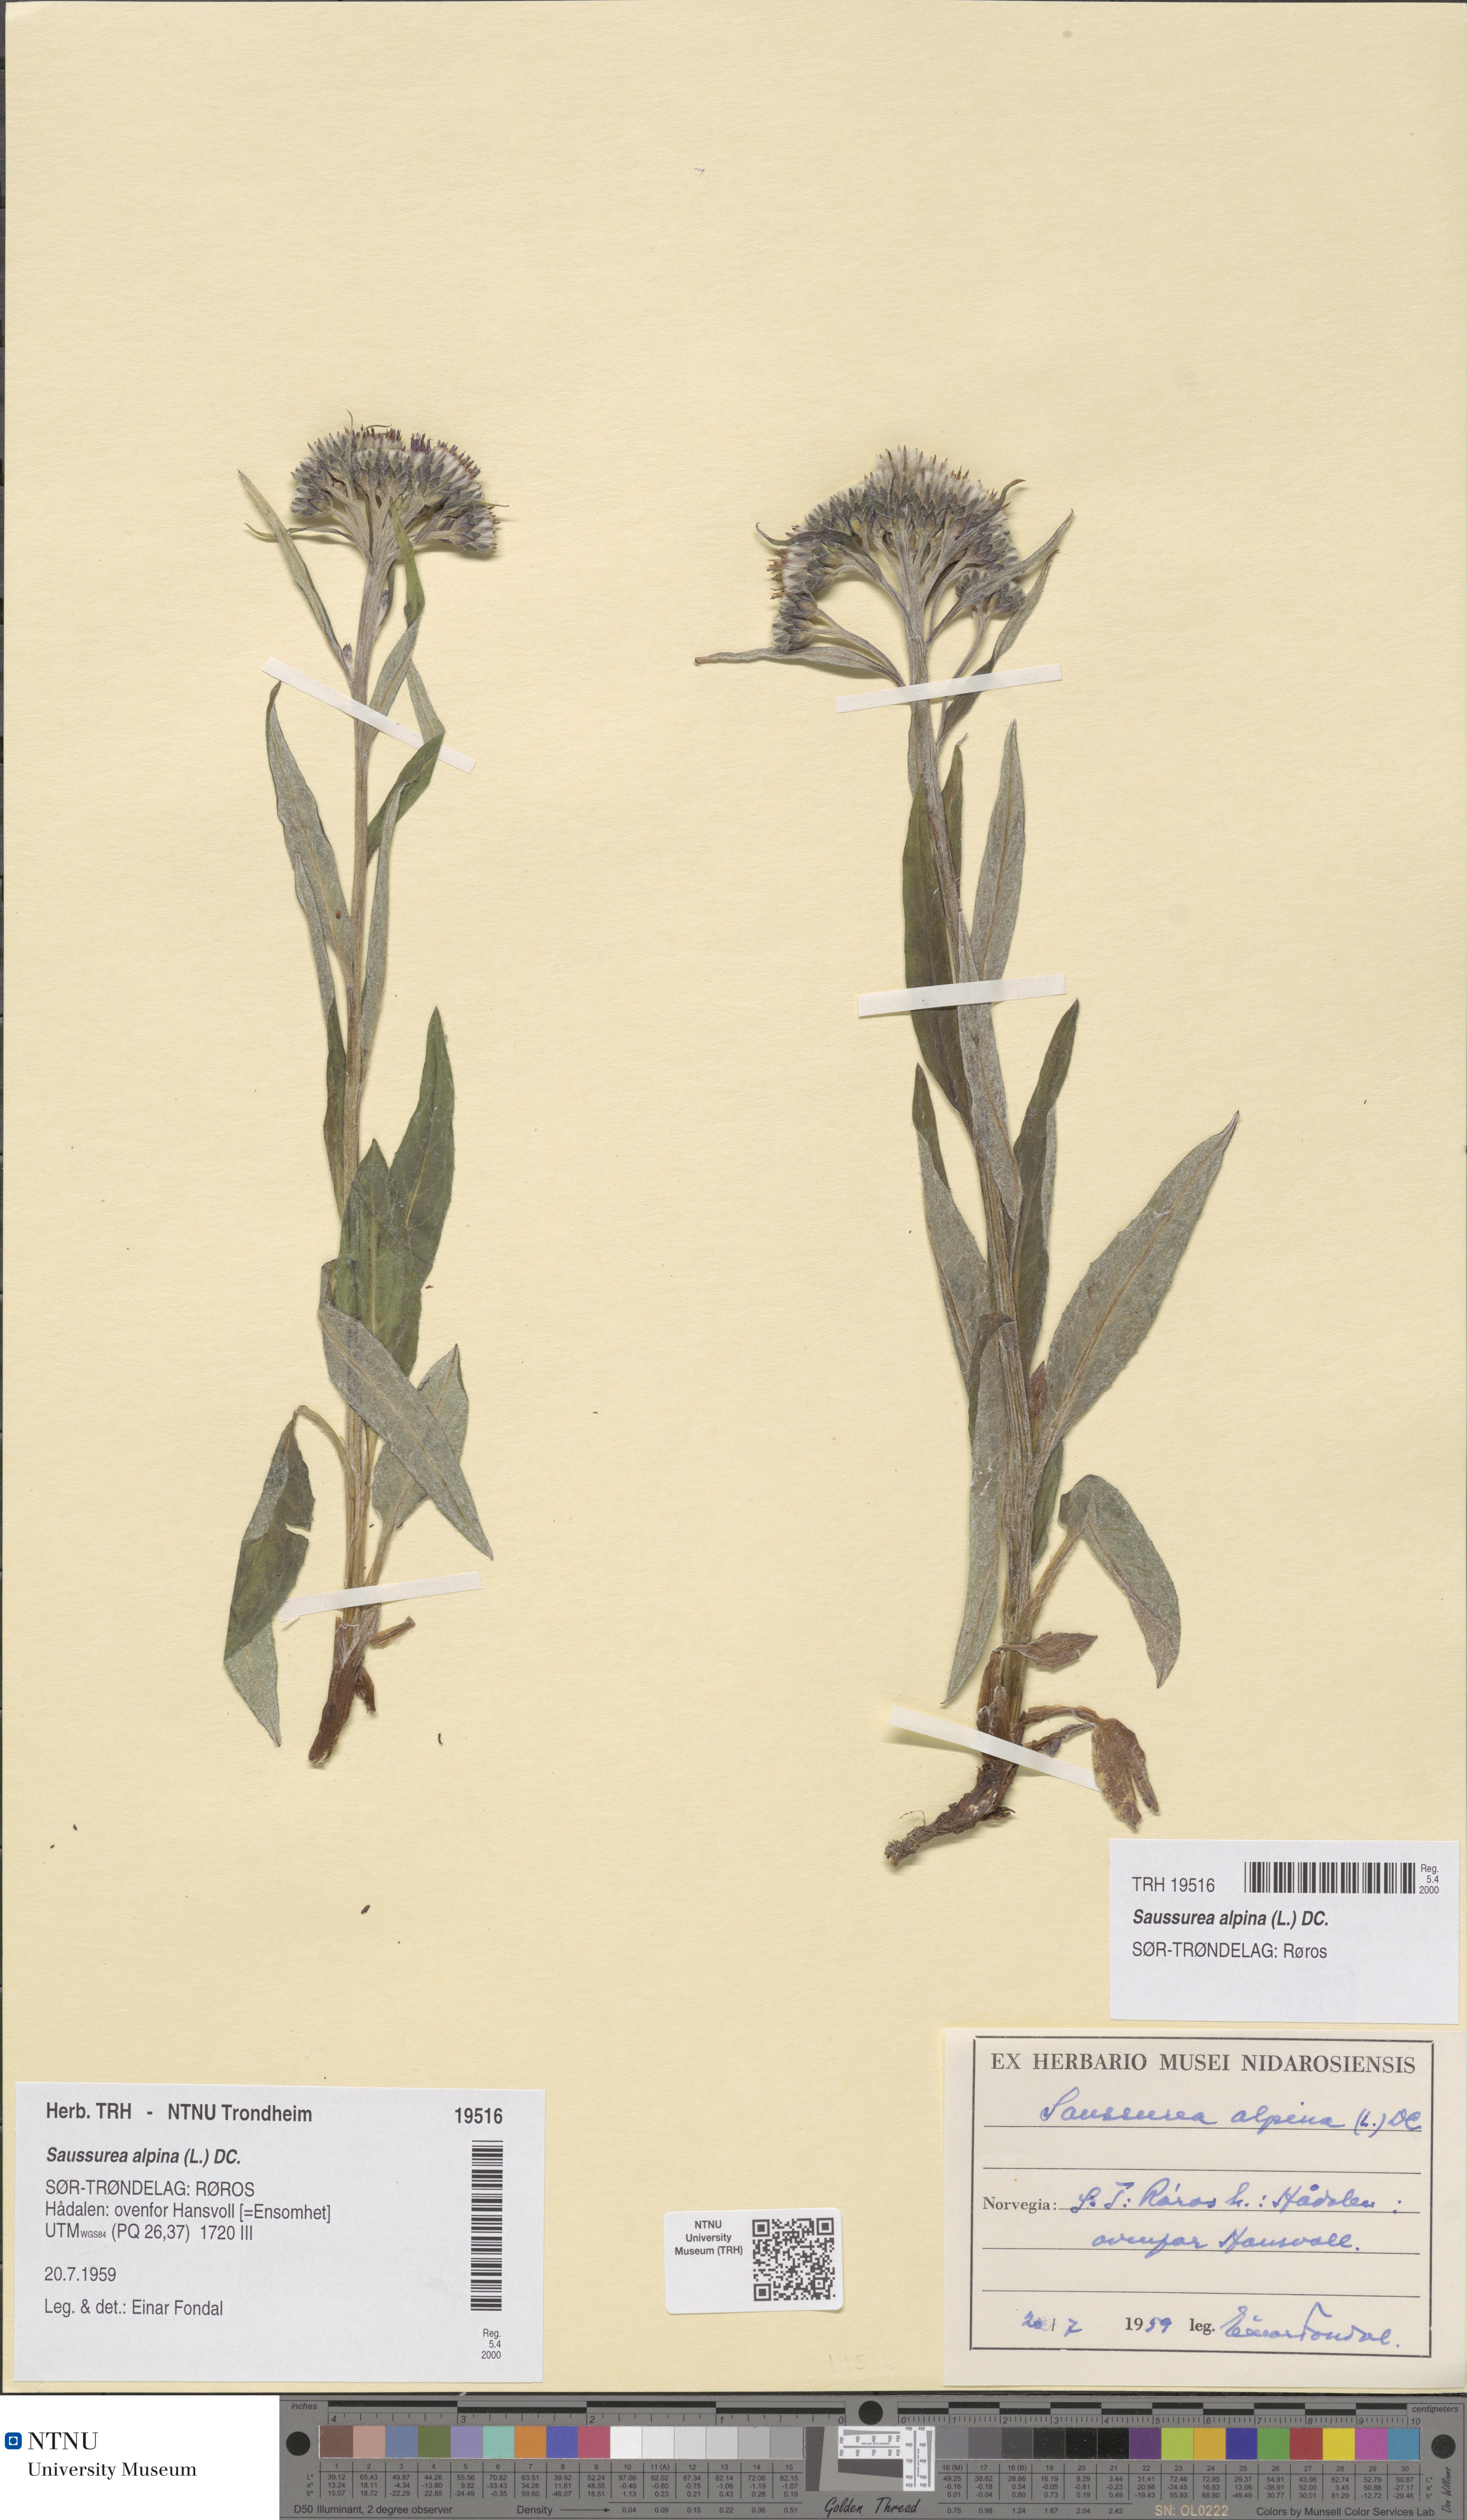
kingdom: Plantae
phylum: Tracheophyta
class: Magnoliopsida
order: Asterales
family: Asteraceae
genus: Saussurea
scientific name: Saussurea alpina
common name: Alpine saw-wort
